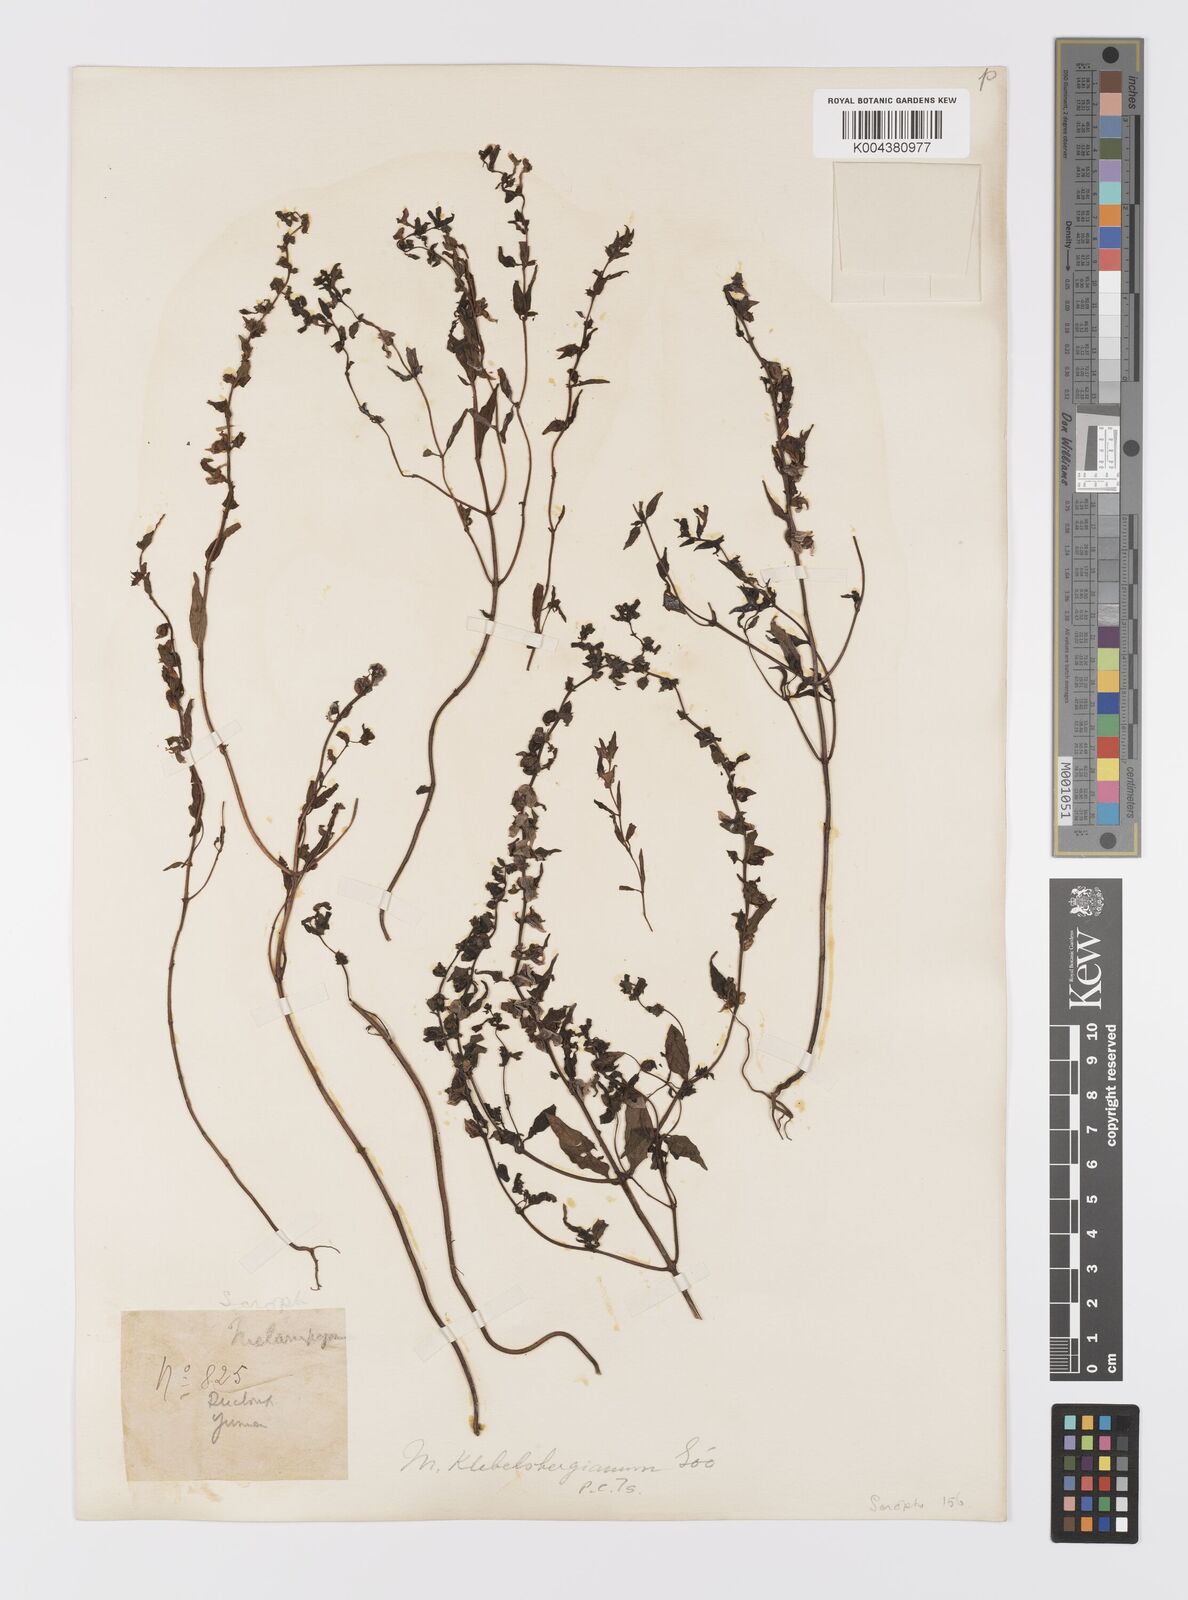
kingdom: Plantae
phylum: Tracheophyta
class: Magnoliopsida
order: Lamiales
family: Orobanchaceae
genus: Melampyrum
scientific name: Melampyrum chinense
